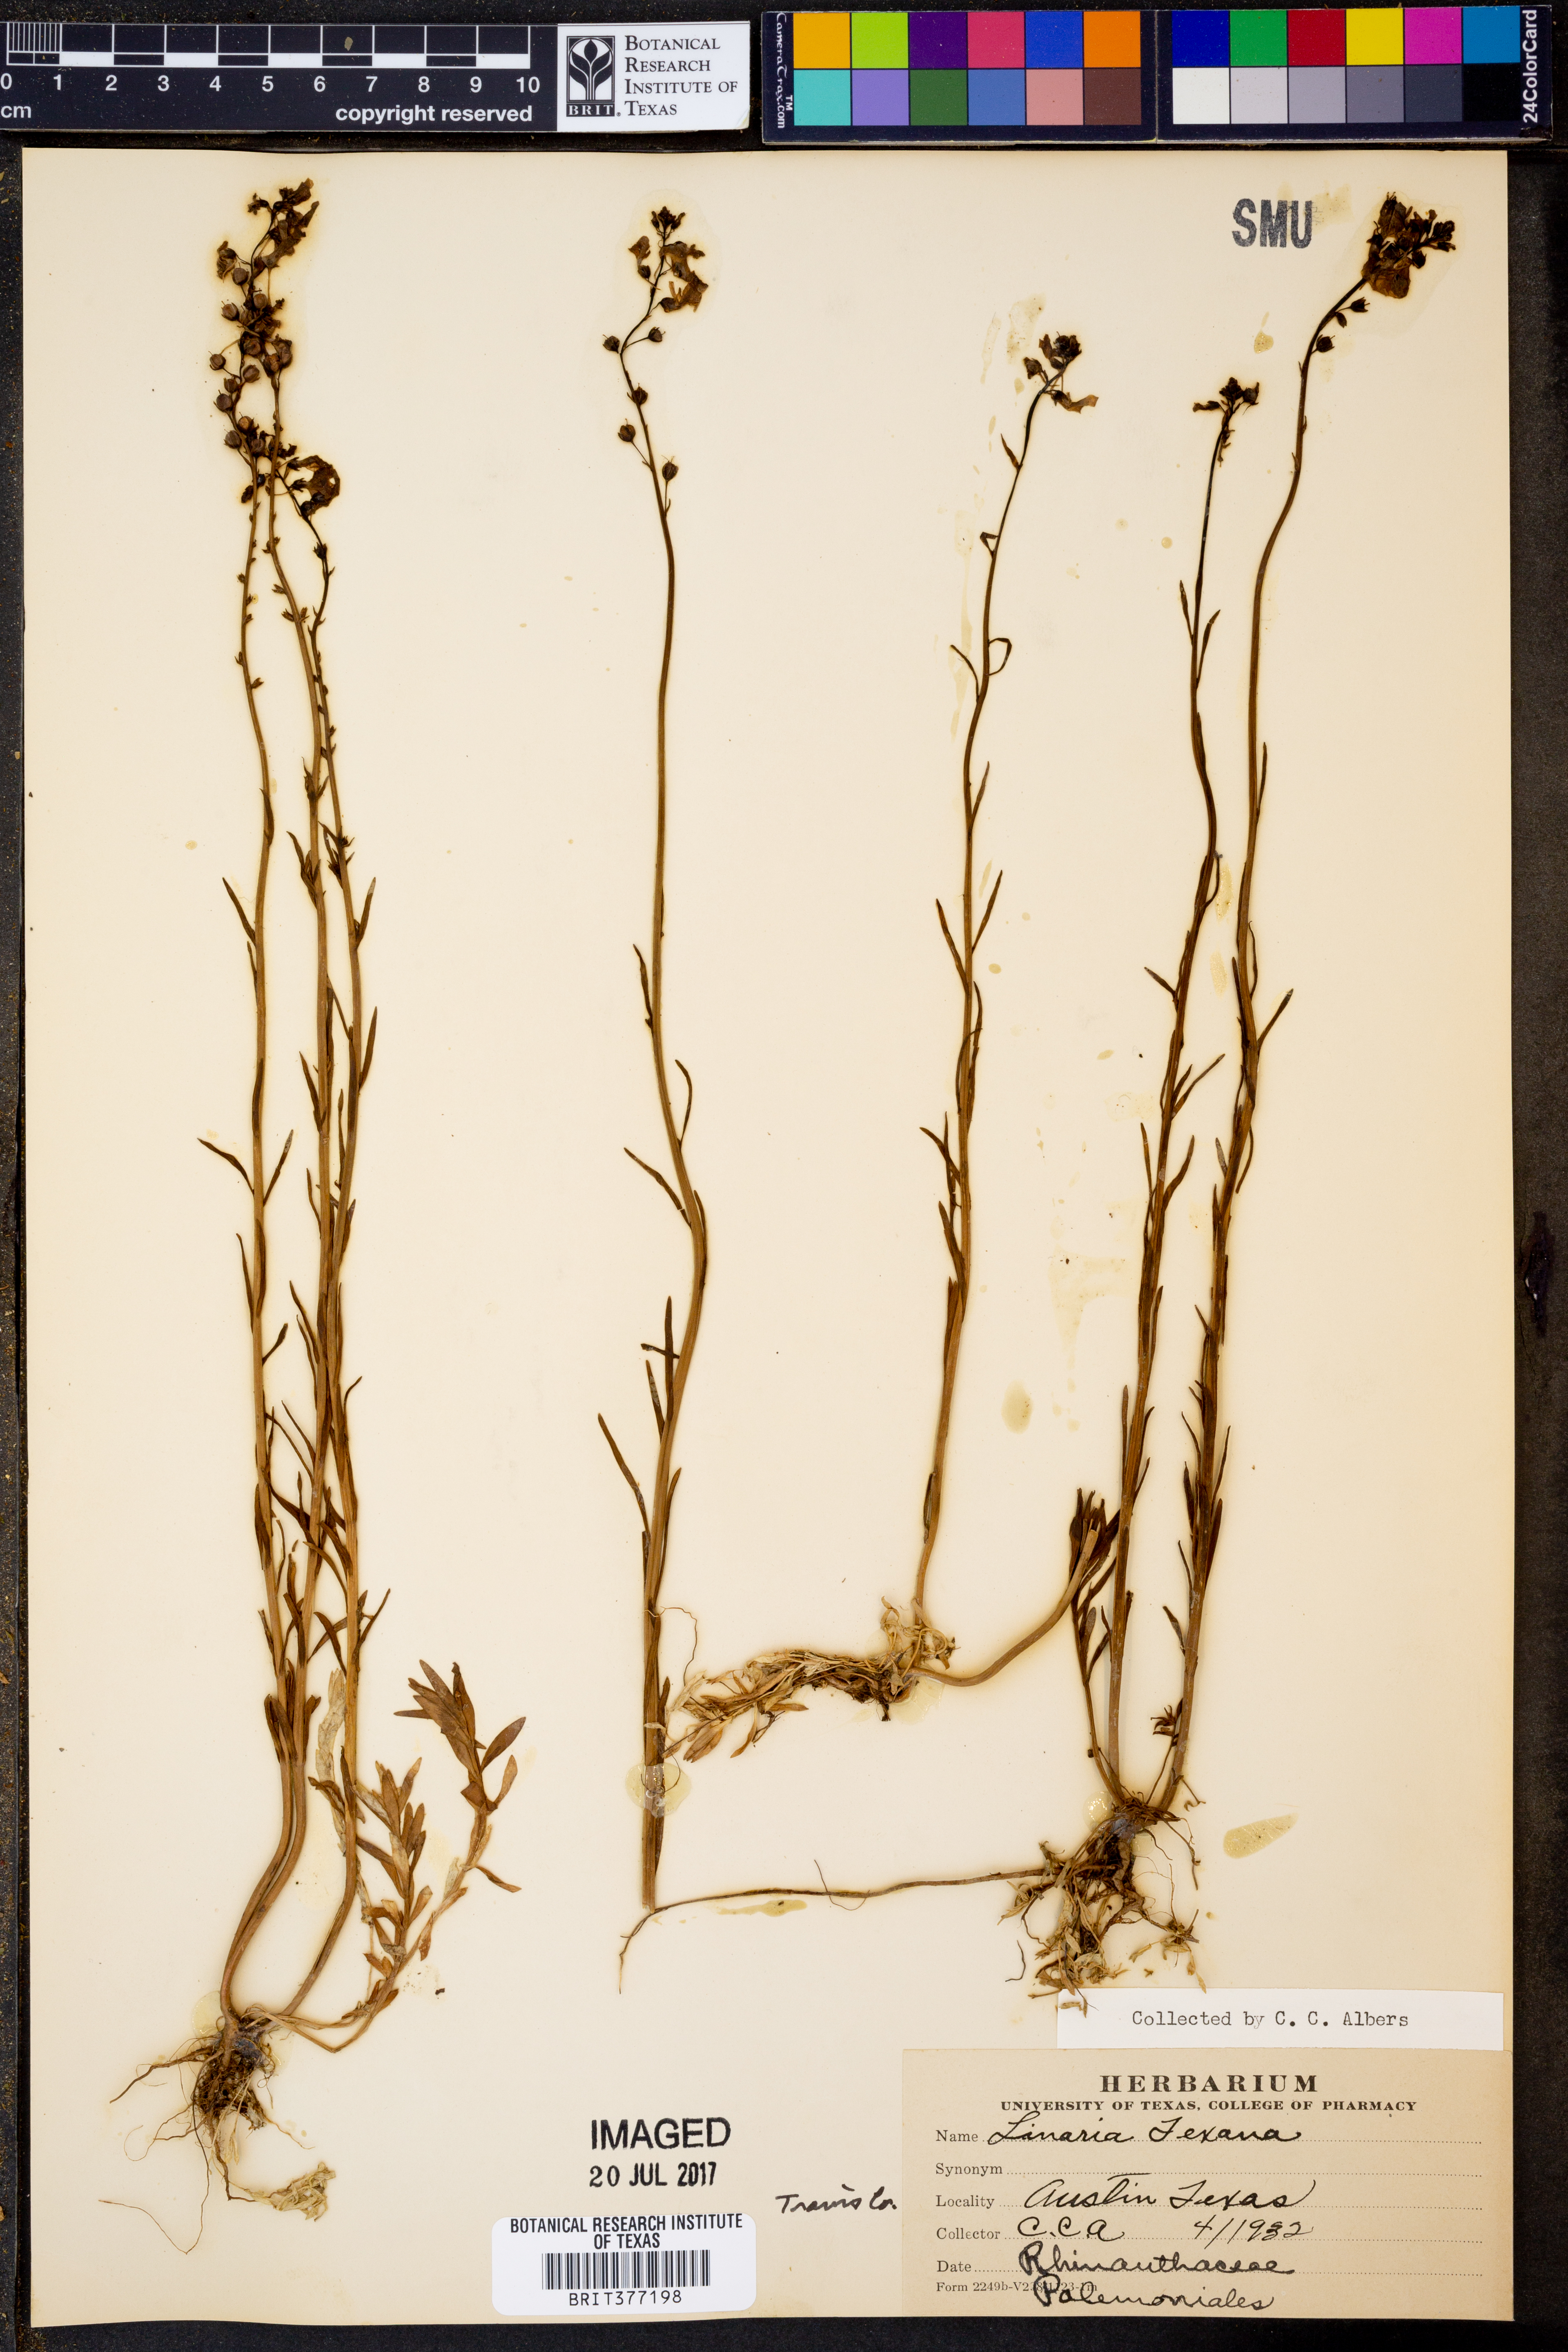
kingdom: Plantae
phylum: Tracheophyta
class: Magnoliopsida
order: Lamiales
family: Plantaginaceae
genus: Nuttallanthus
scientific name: Nuttallanthus texanus
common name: Texas toadflax
